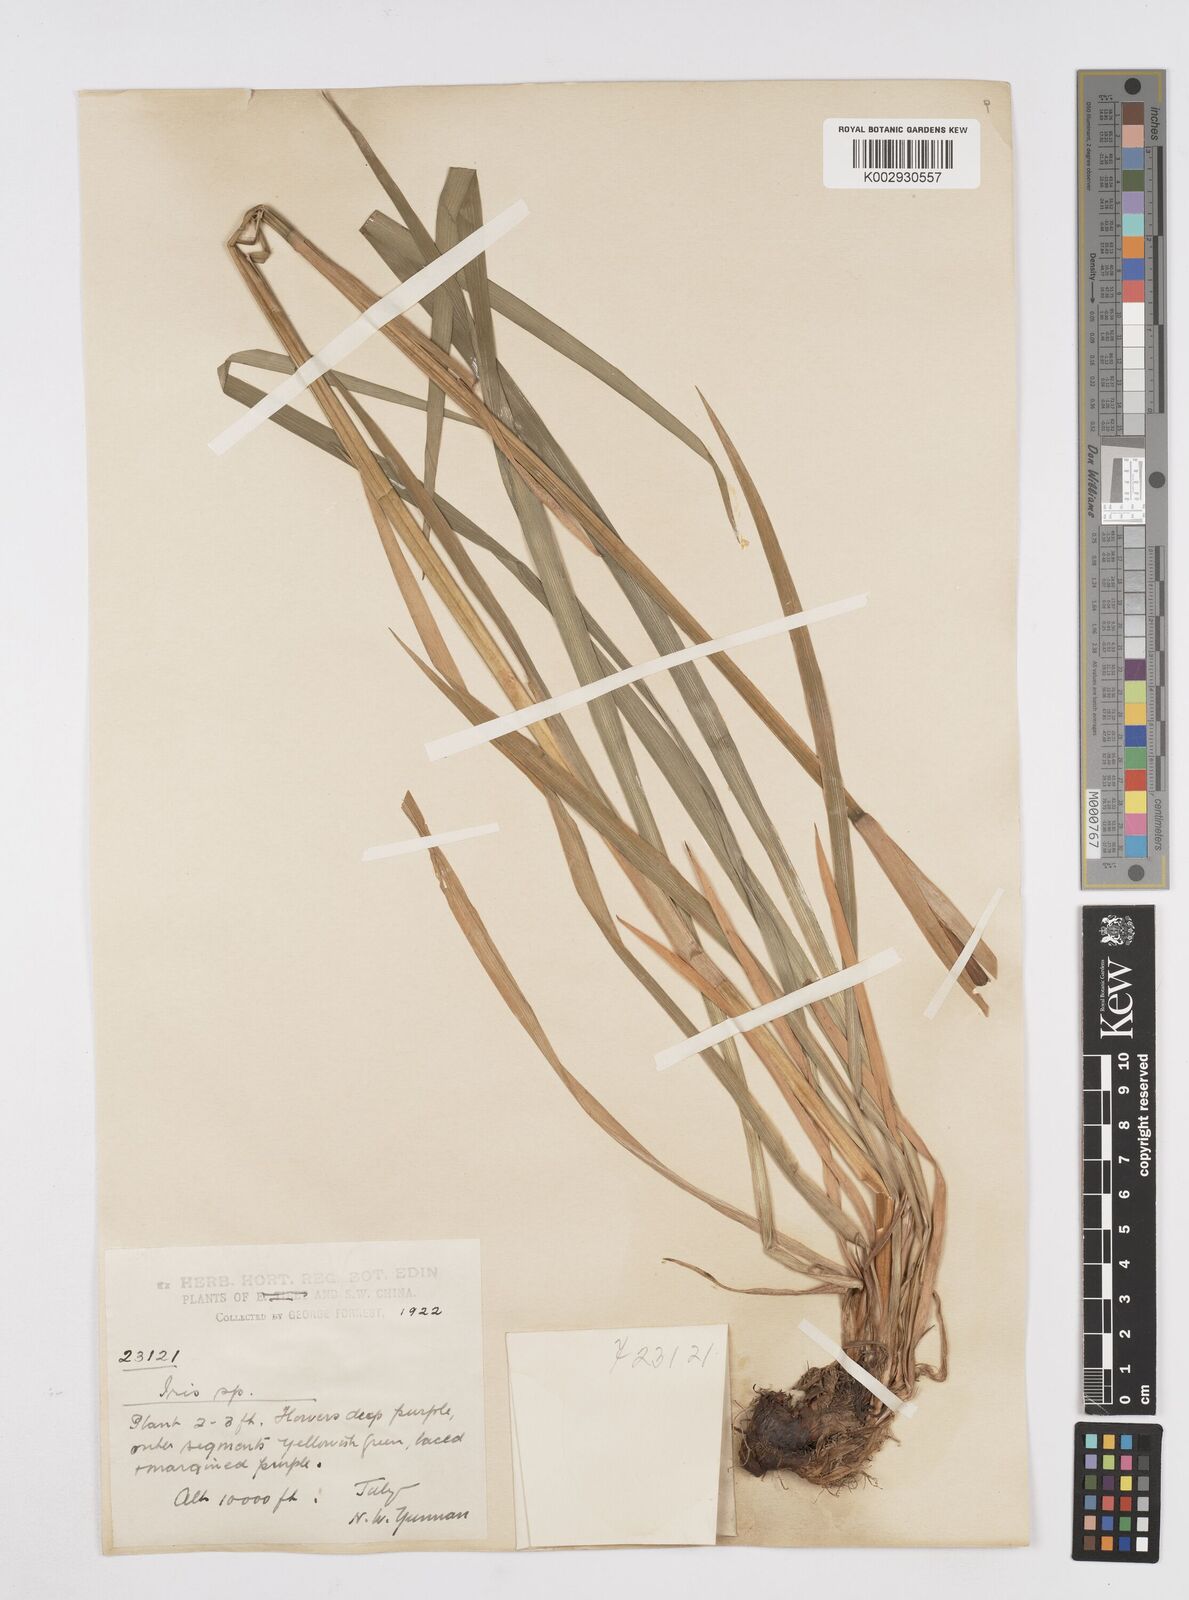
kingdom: Plantae
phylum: Tracheophyta
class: Liliopsida
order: Asparagales
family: Iridaceae
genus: Iris
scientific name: Iris bulleyana
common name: Southwest iris
